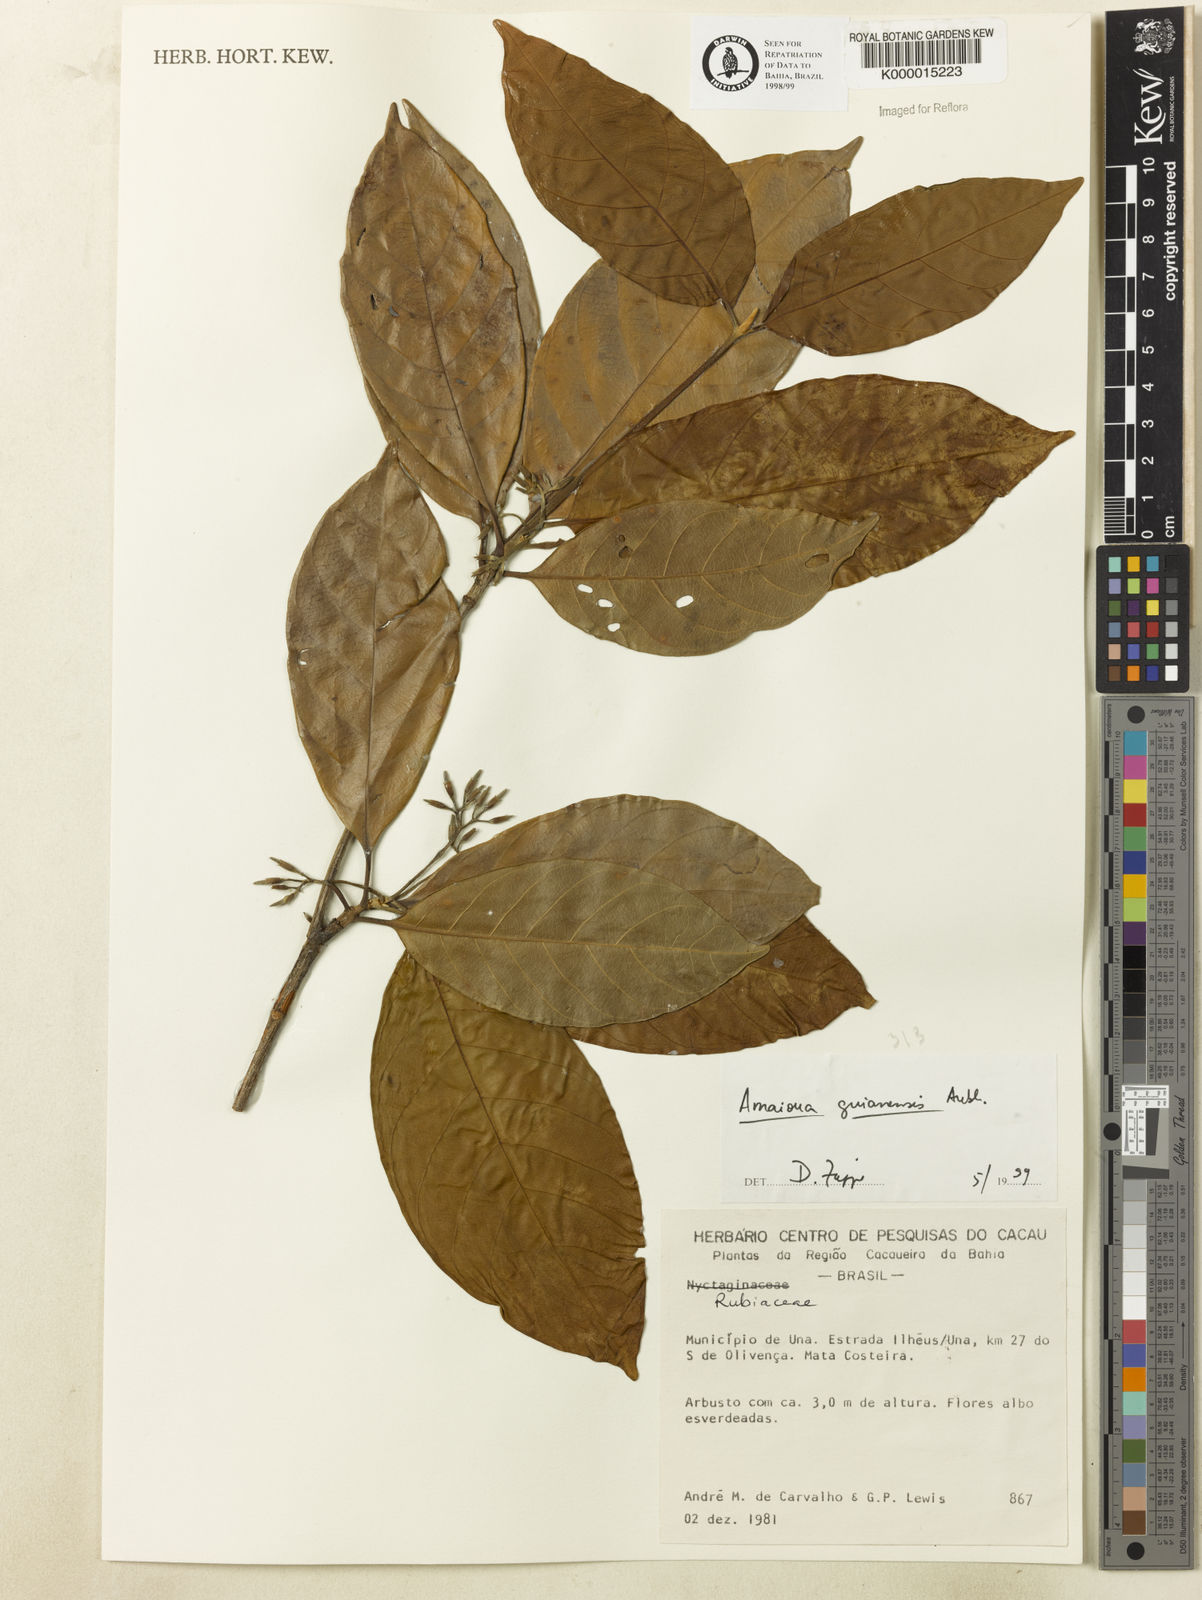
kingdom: Plantae
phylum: Tracheophyta
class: Magnoliopsida
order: Gentianales
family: Rubiaceae
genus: Amaioua
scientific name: Amaioua guianensis
